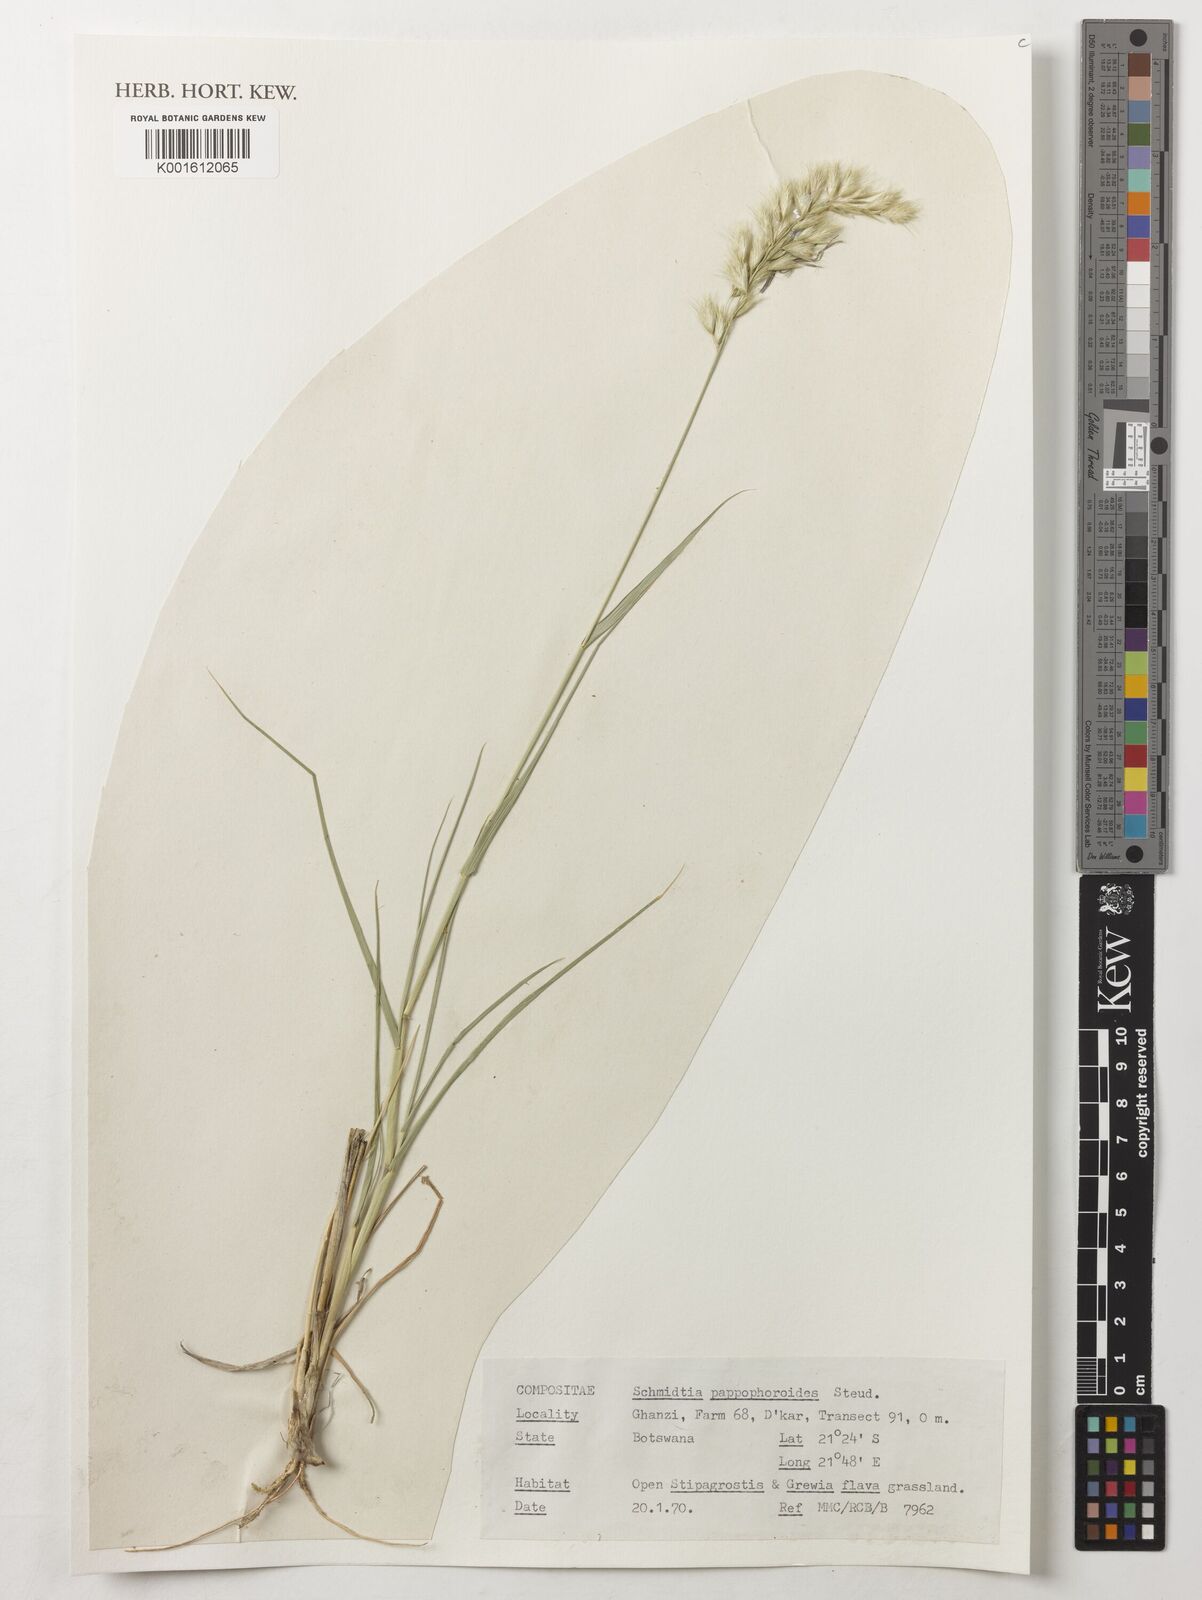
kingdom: Plantae
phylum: Tracheophyta
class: Liliopsida
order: Poales
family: Poaceae
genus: Schmidtia
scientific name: Schmidtia pappophoroides
